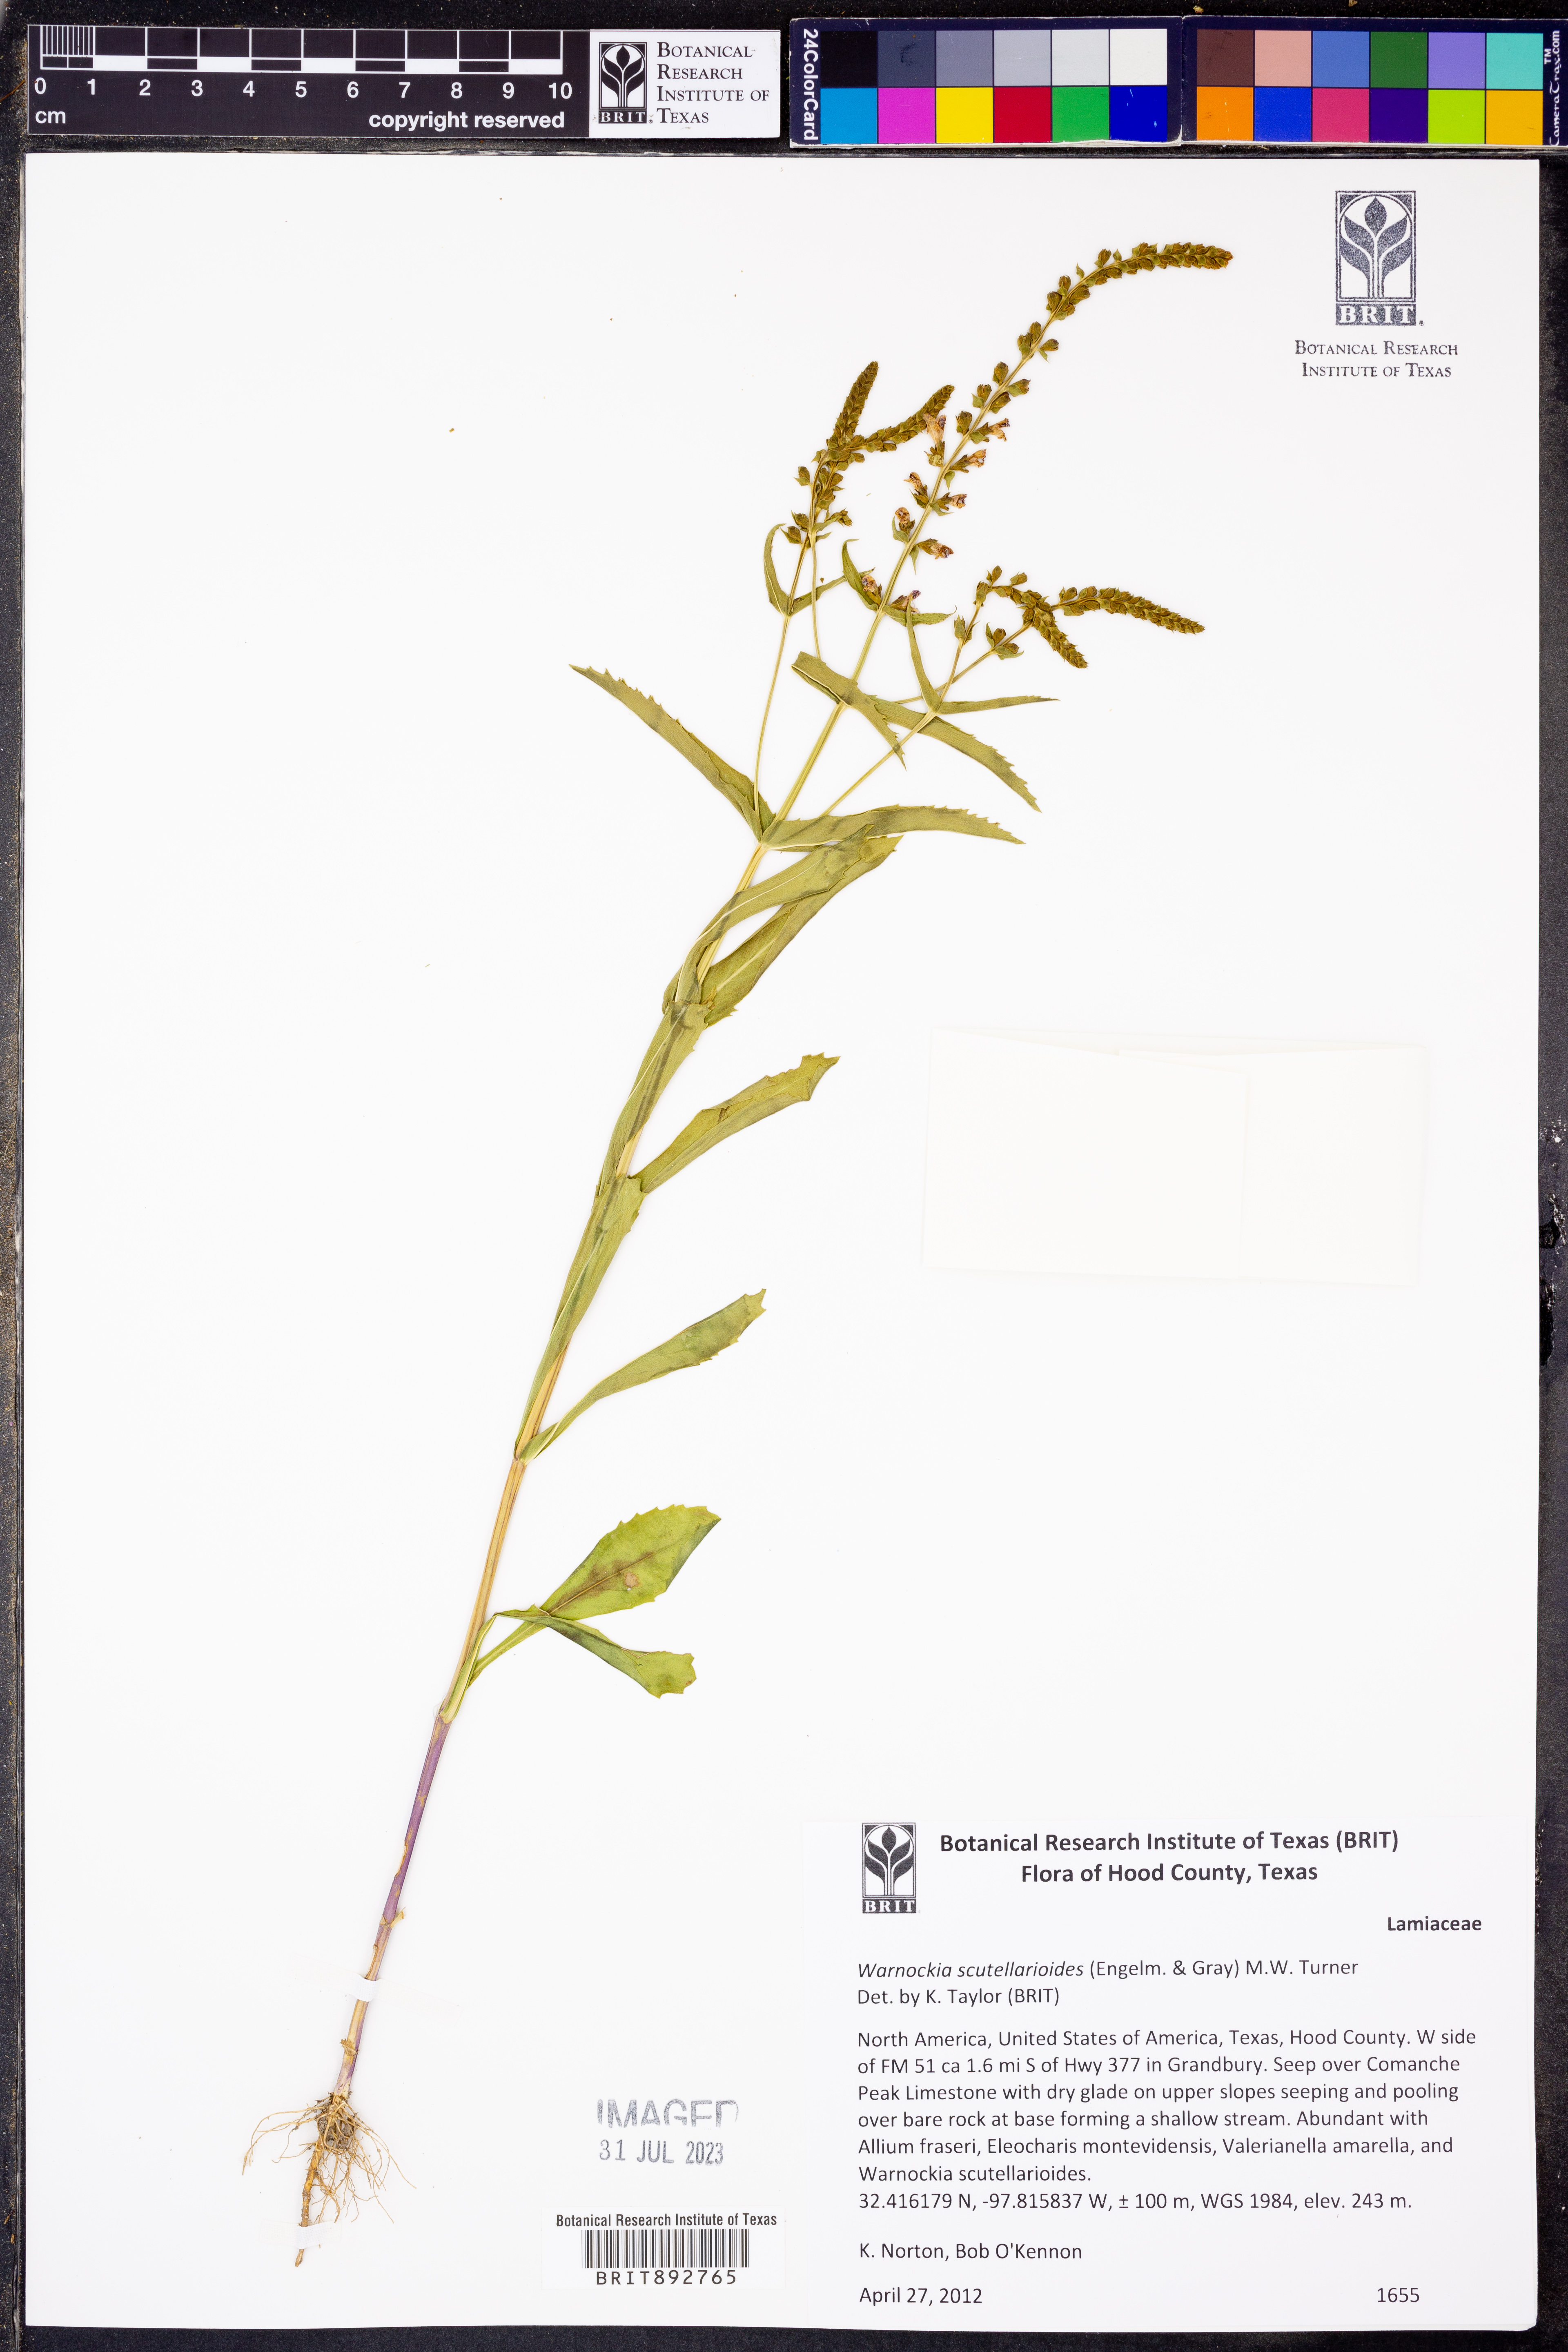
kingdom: Plantae
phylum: Tracheophyta
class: Magnoliopsida
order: Lamiales
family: Lamiaceae
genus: Warnockia
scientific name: Warnockia scutellarioides
